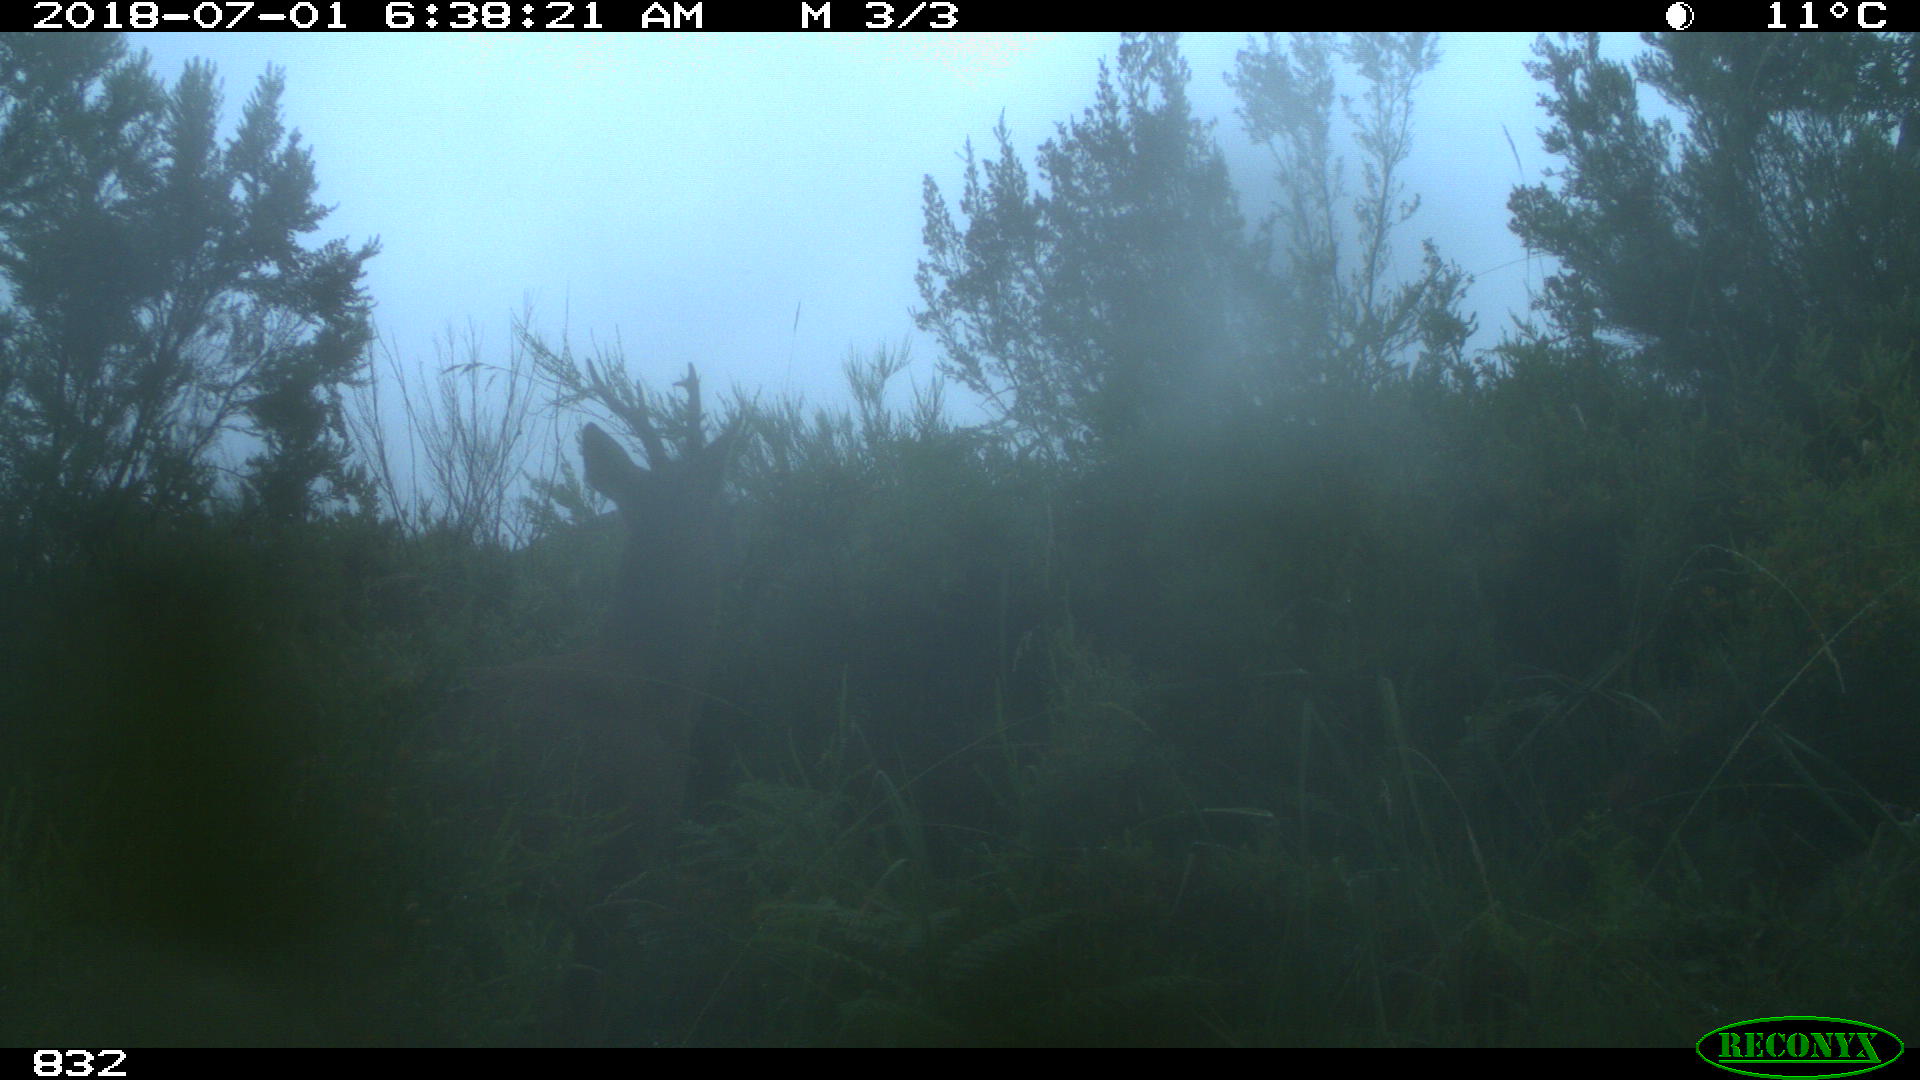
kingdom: Animalia
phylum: Chordata
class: Mammalia
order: Artiodactyla
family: Cervidae
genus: Capreolus
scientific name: Capreolus capreolus
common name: Western roe deer
